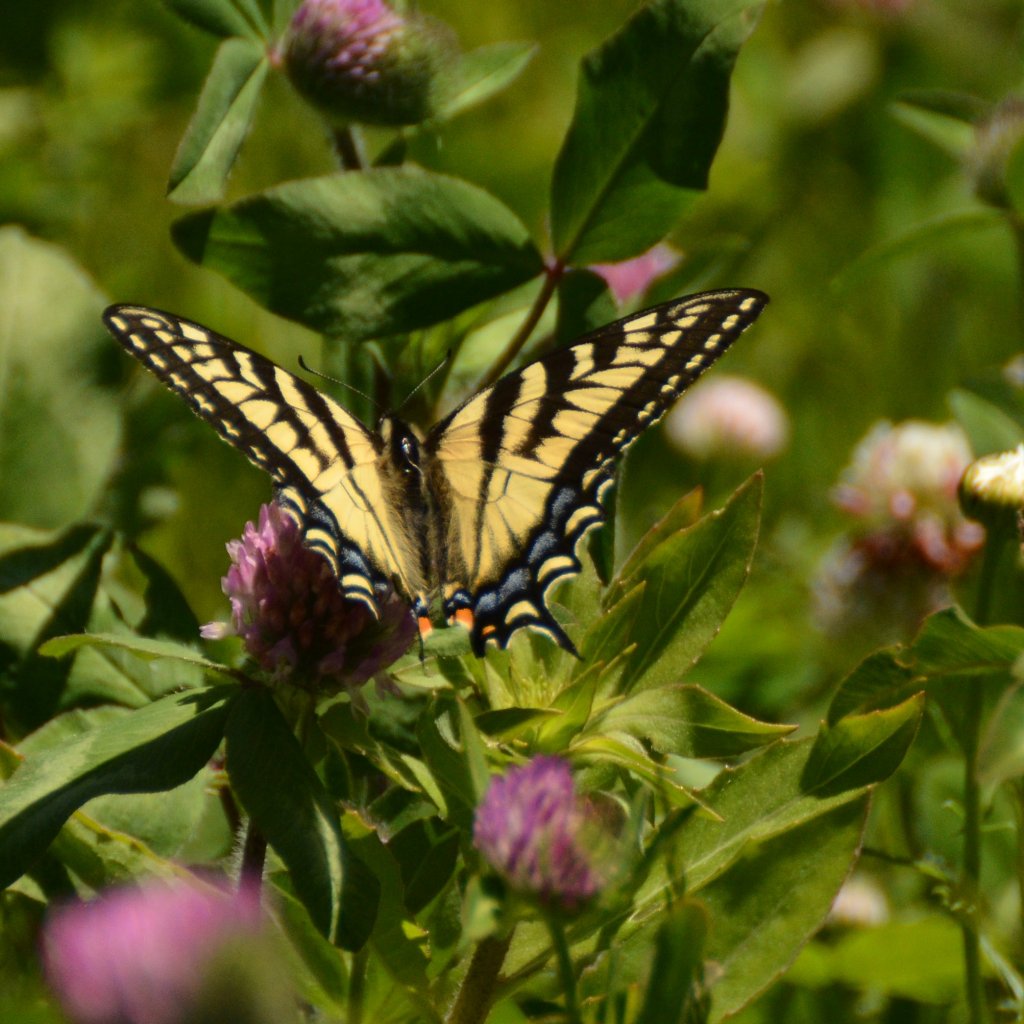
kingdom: Animalia
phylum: Arthropoda
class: Insecta
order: Lepidoptera
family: Papilionidae
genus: Pterourus
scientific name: Pterourus canadensis
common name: Canadian Tiger Swallowtail
